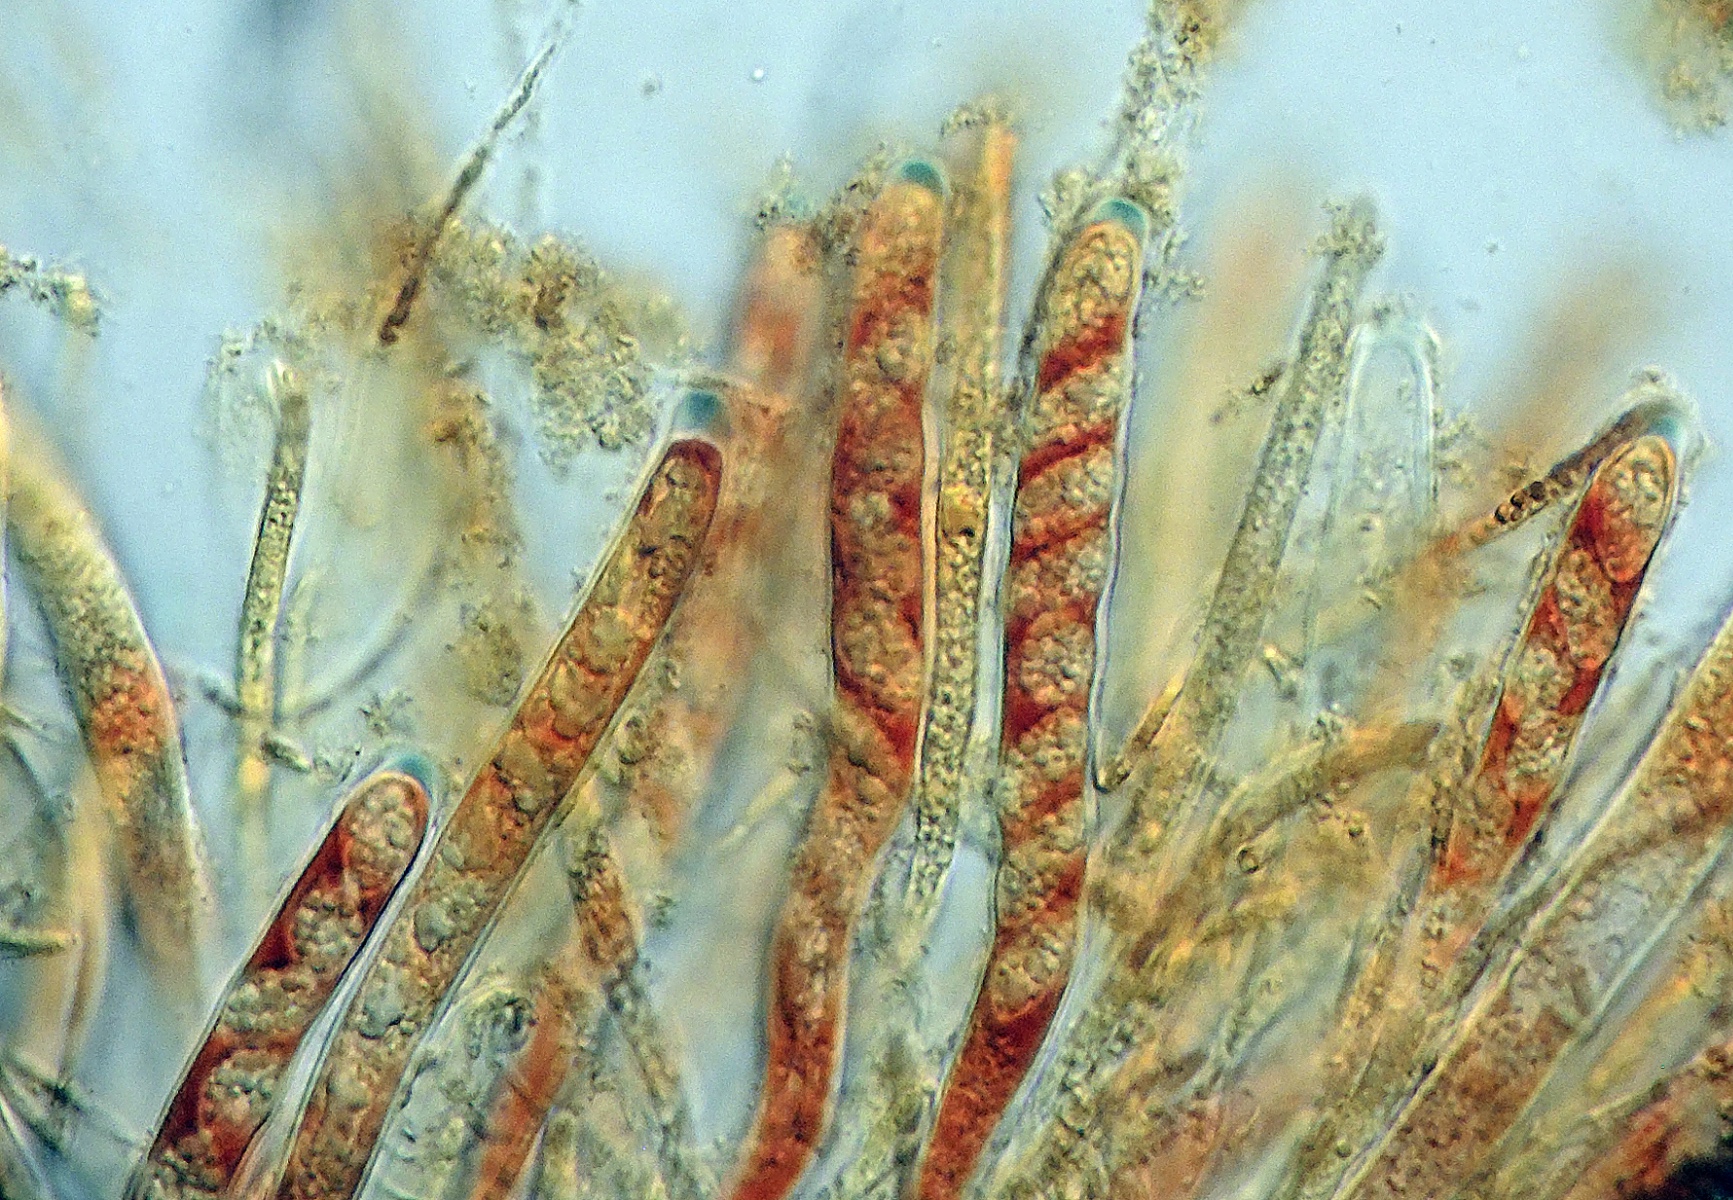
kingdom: Fungi
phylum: Ascomycota
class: Leotiomycetes
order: Helotiales
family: Ploettnerulaceae
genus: Pyrenopeziza
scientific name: Pyrenopeziza personata
